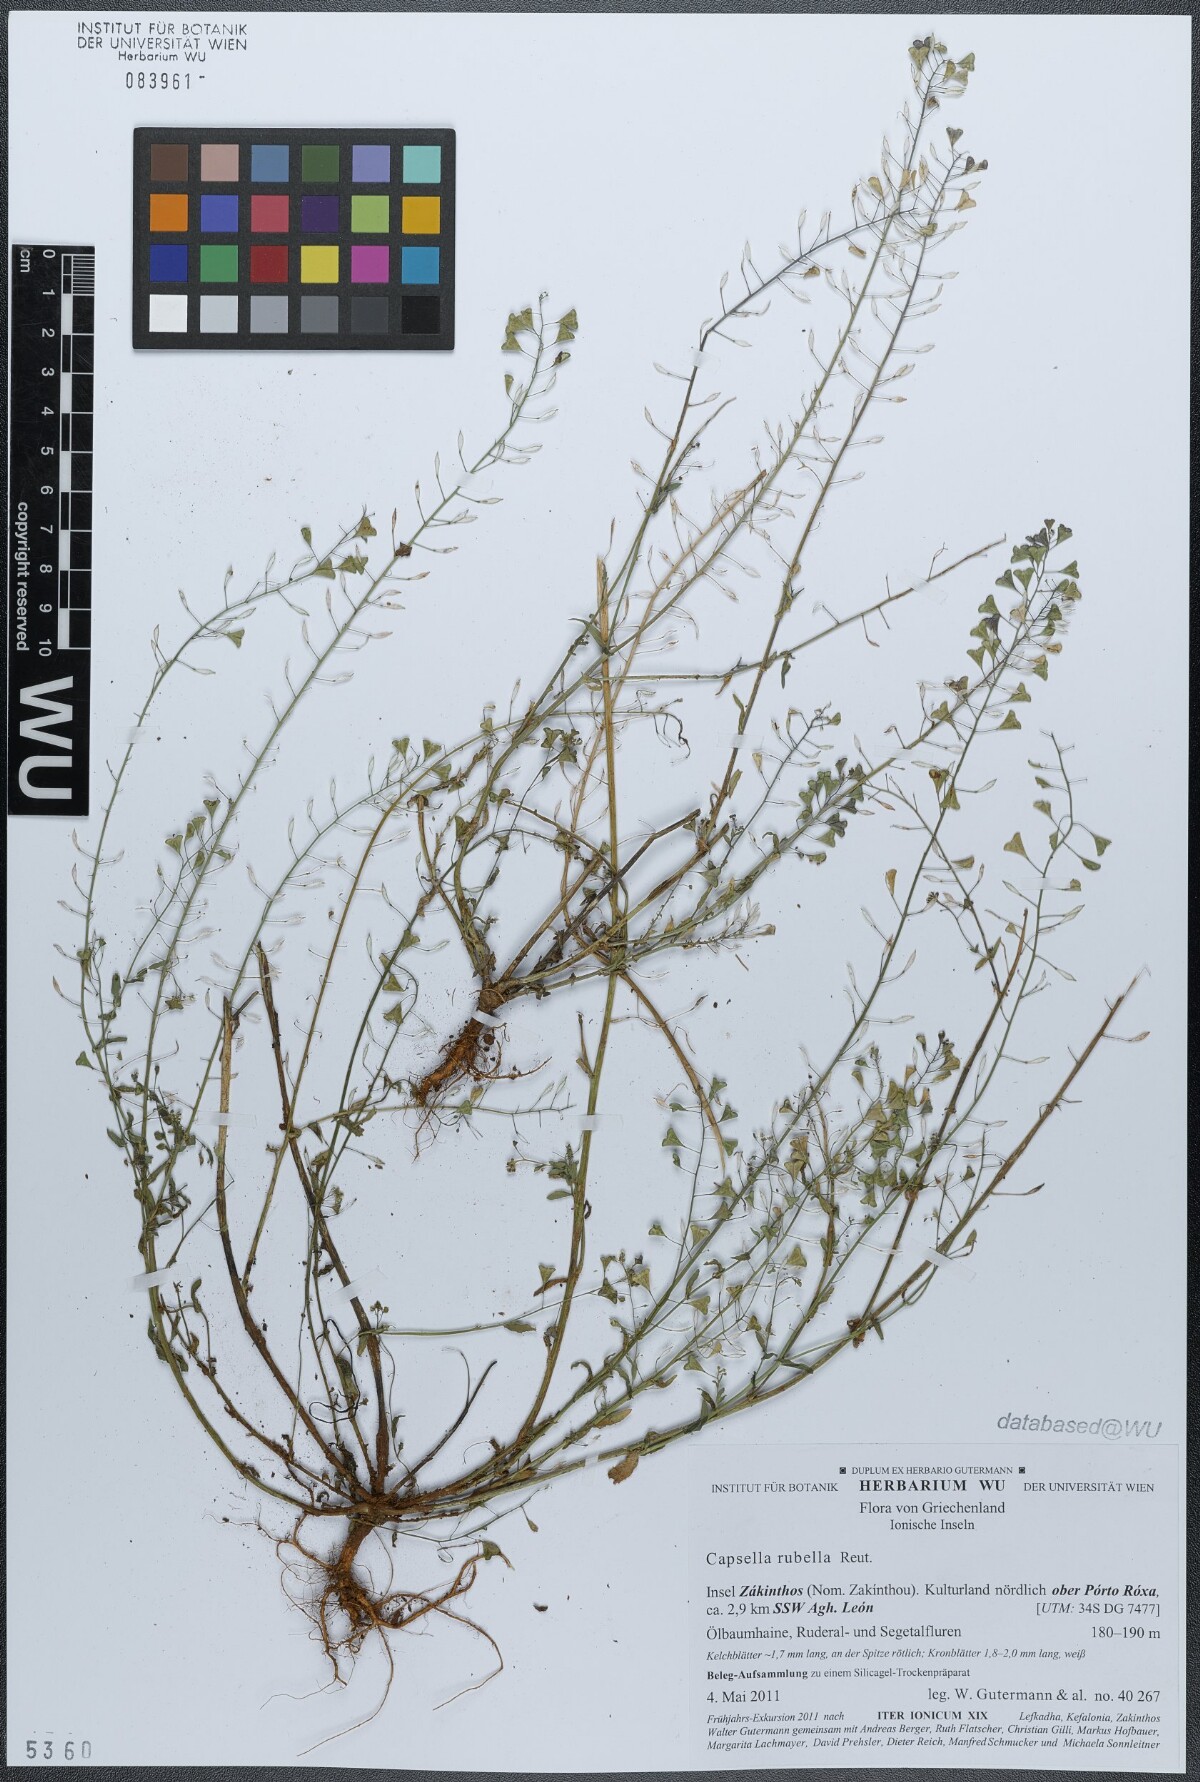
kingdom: Plantae
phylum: Tracheophyta
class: Magnoliopsida
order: Brassicales
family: Brassicaceae
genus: Capsella
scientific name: Capsella rubella
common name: Pink shepherd's-purse
